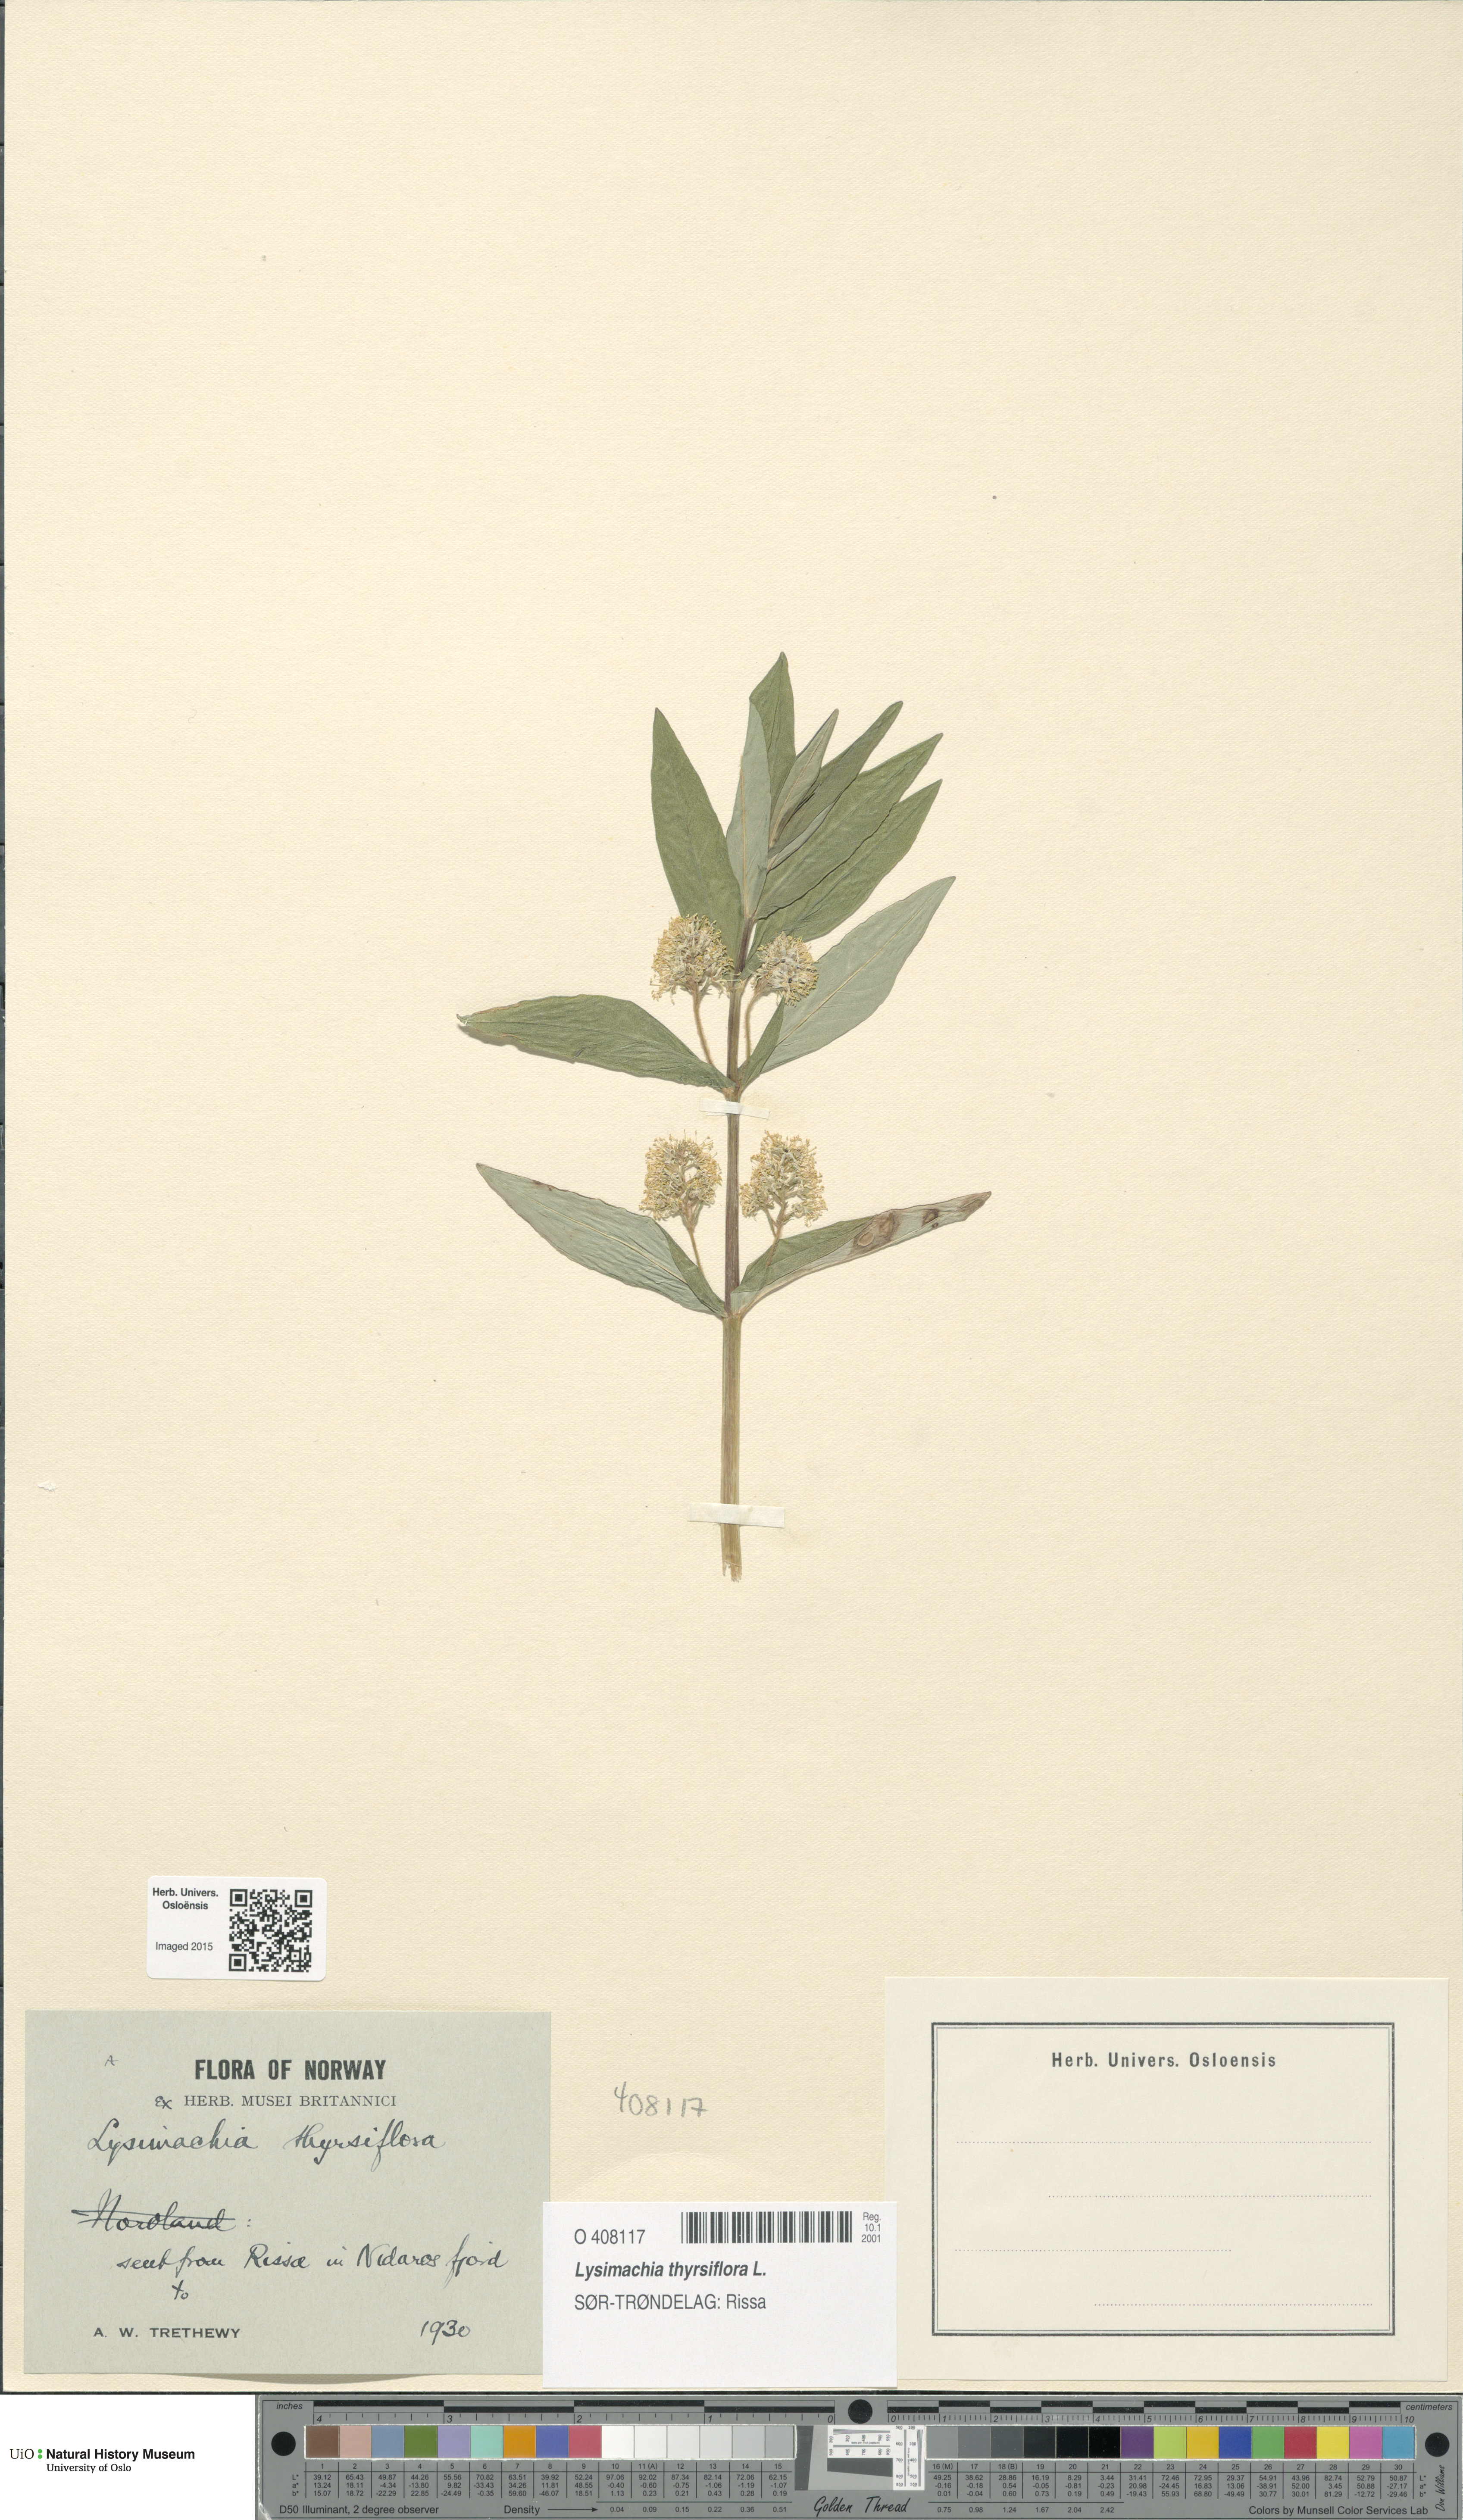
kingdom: Plantae
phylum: Tracheophyta
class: Magnoliopsida
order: Ericales
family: Primulaceae
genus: Lysimachia
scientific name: Lysimachia thyrsiflora
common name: Tufted loosestrife
